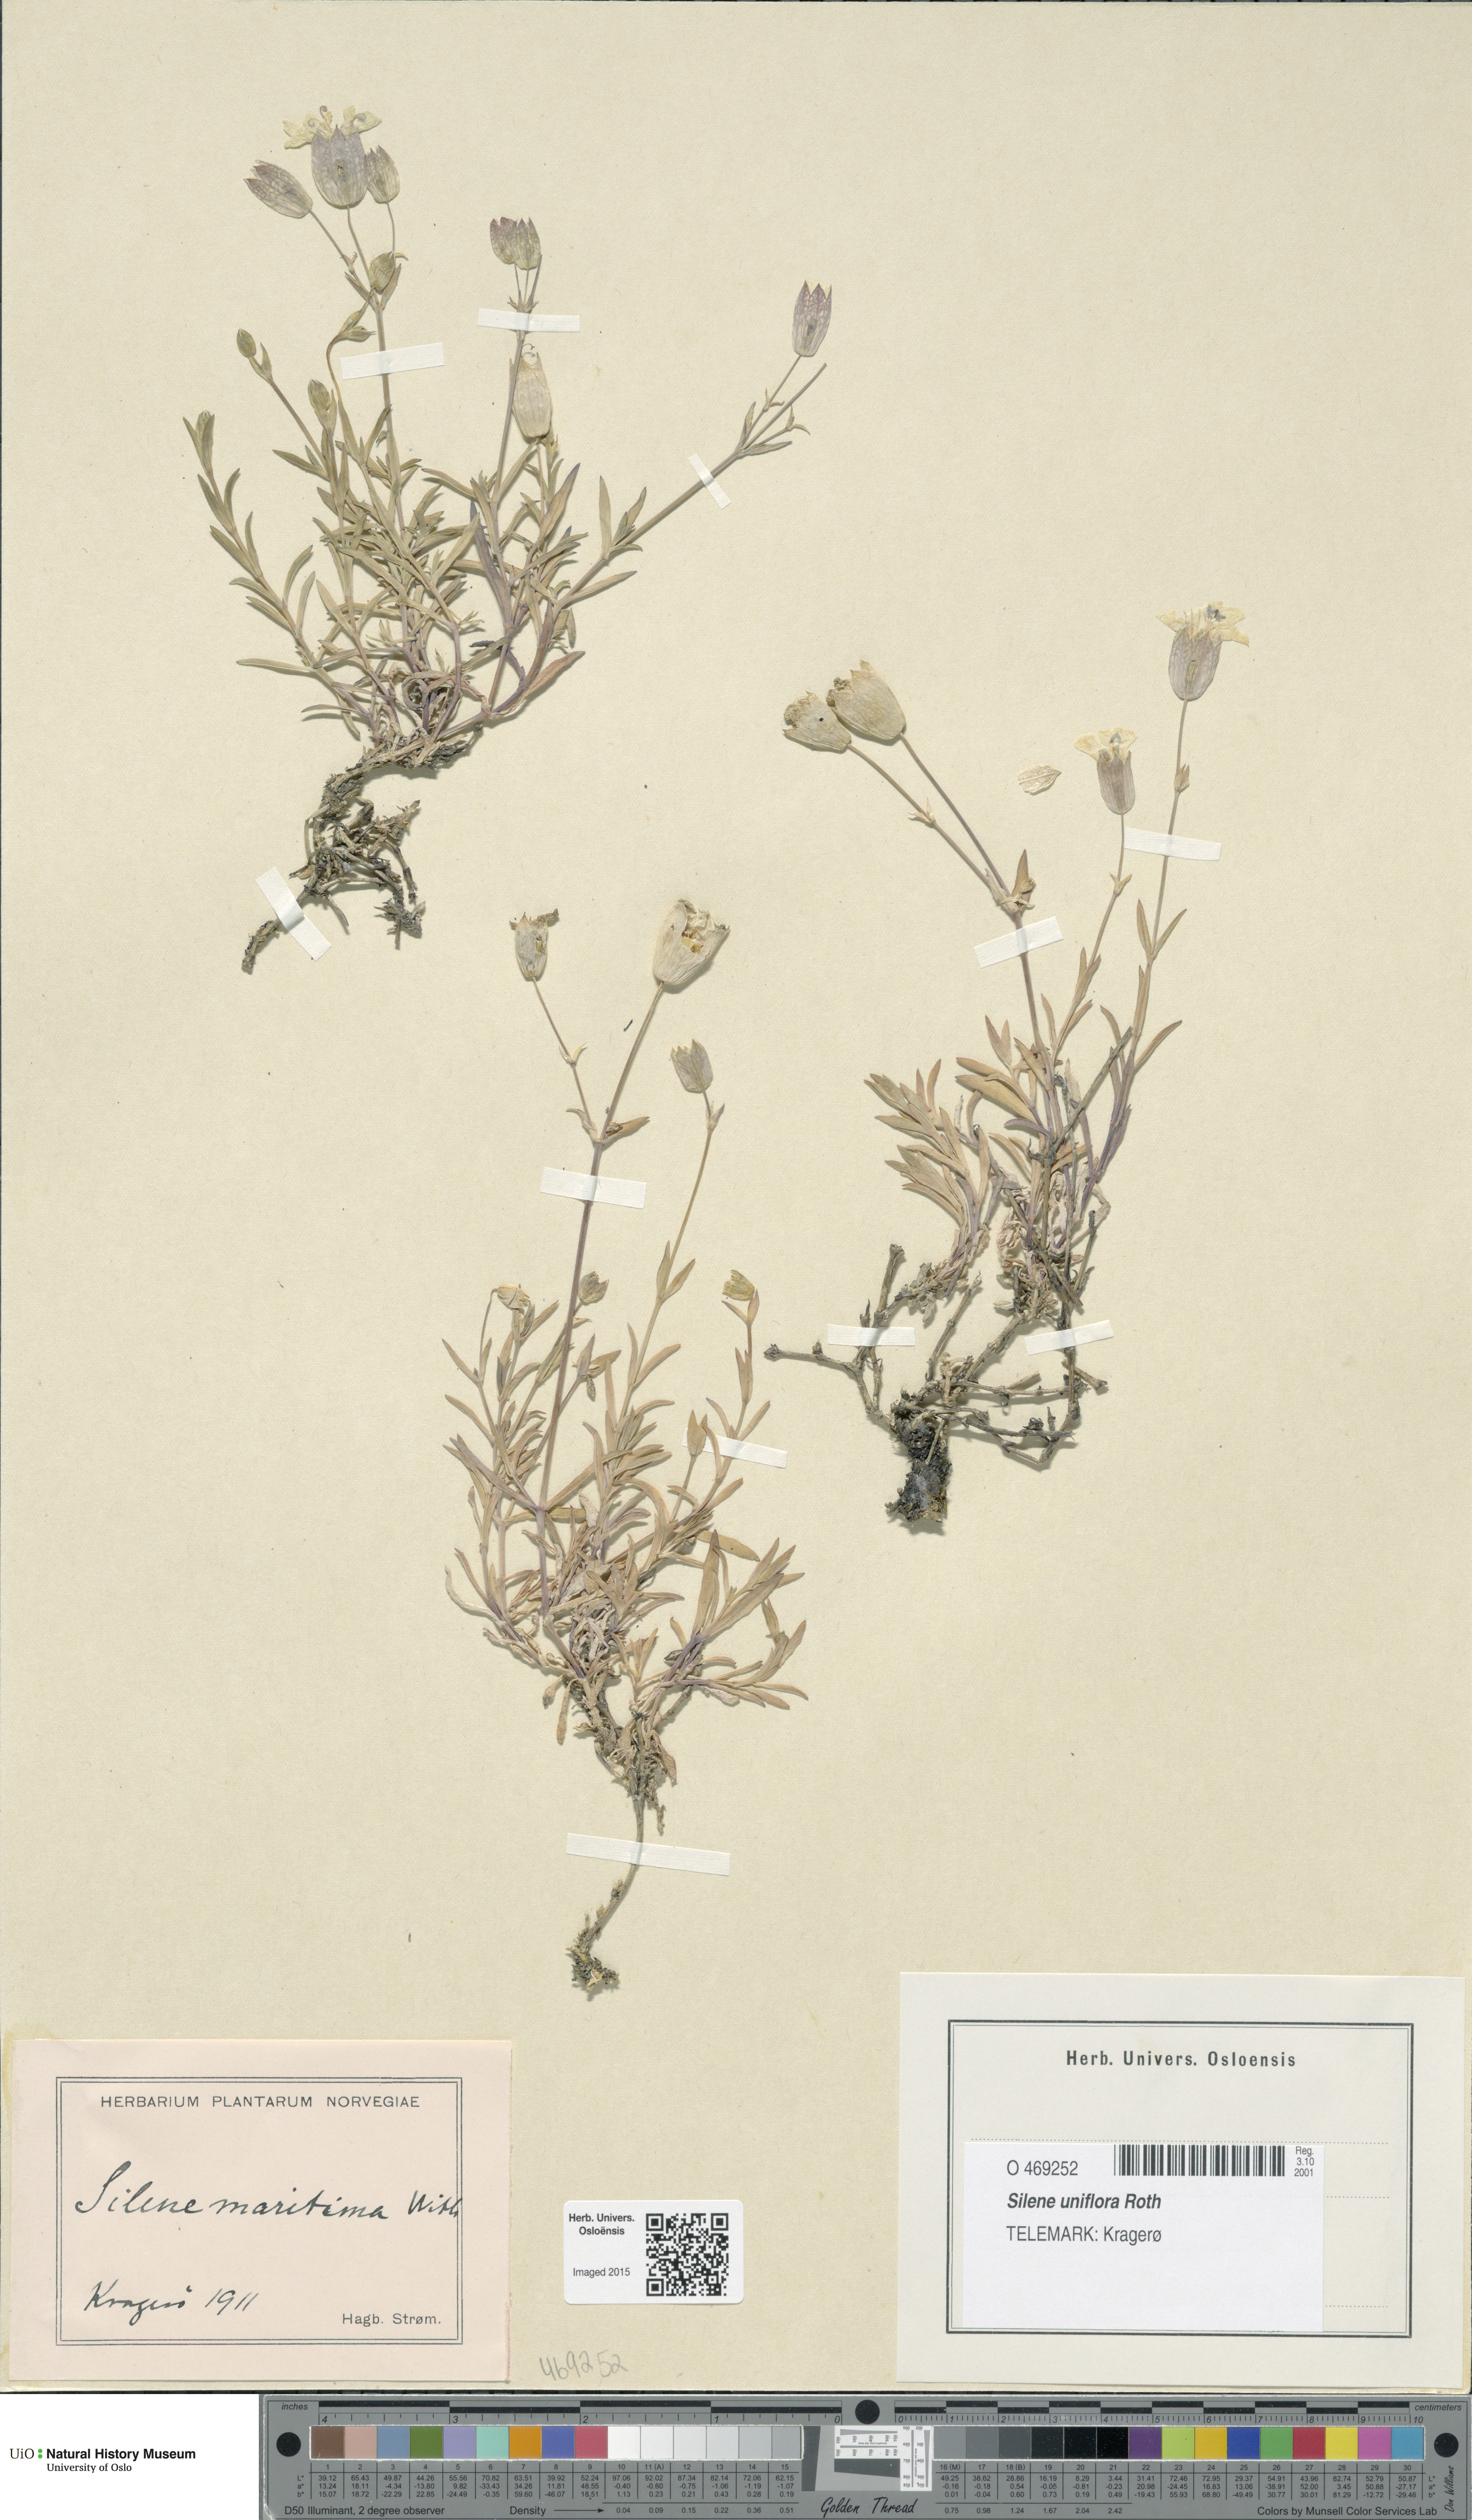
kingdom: Plantae
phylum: Tracheophyta
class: Magnoliopsida
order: Caryophyllales
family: Caryophyllaceae
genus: Silene
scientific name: Silene uniflora
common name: Sea campion
